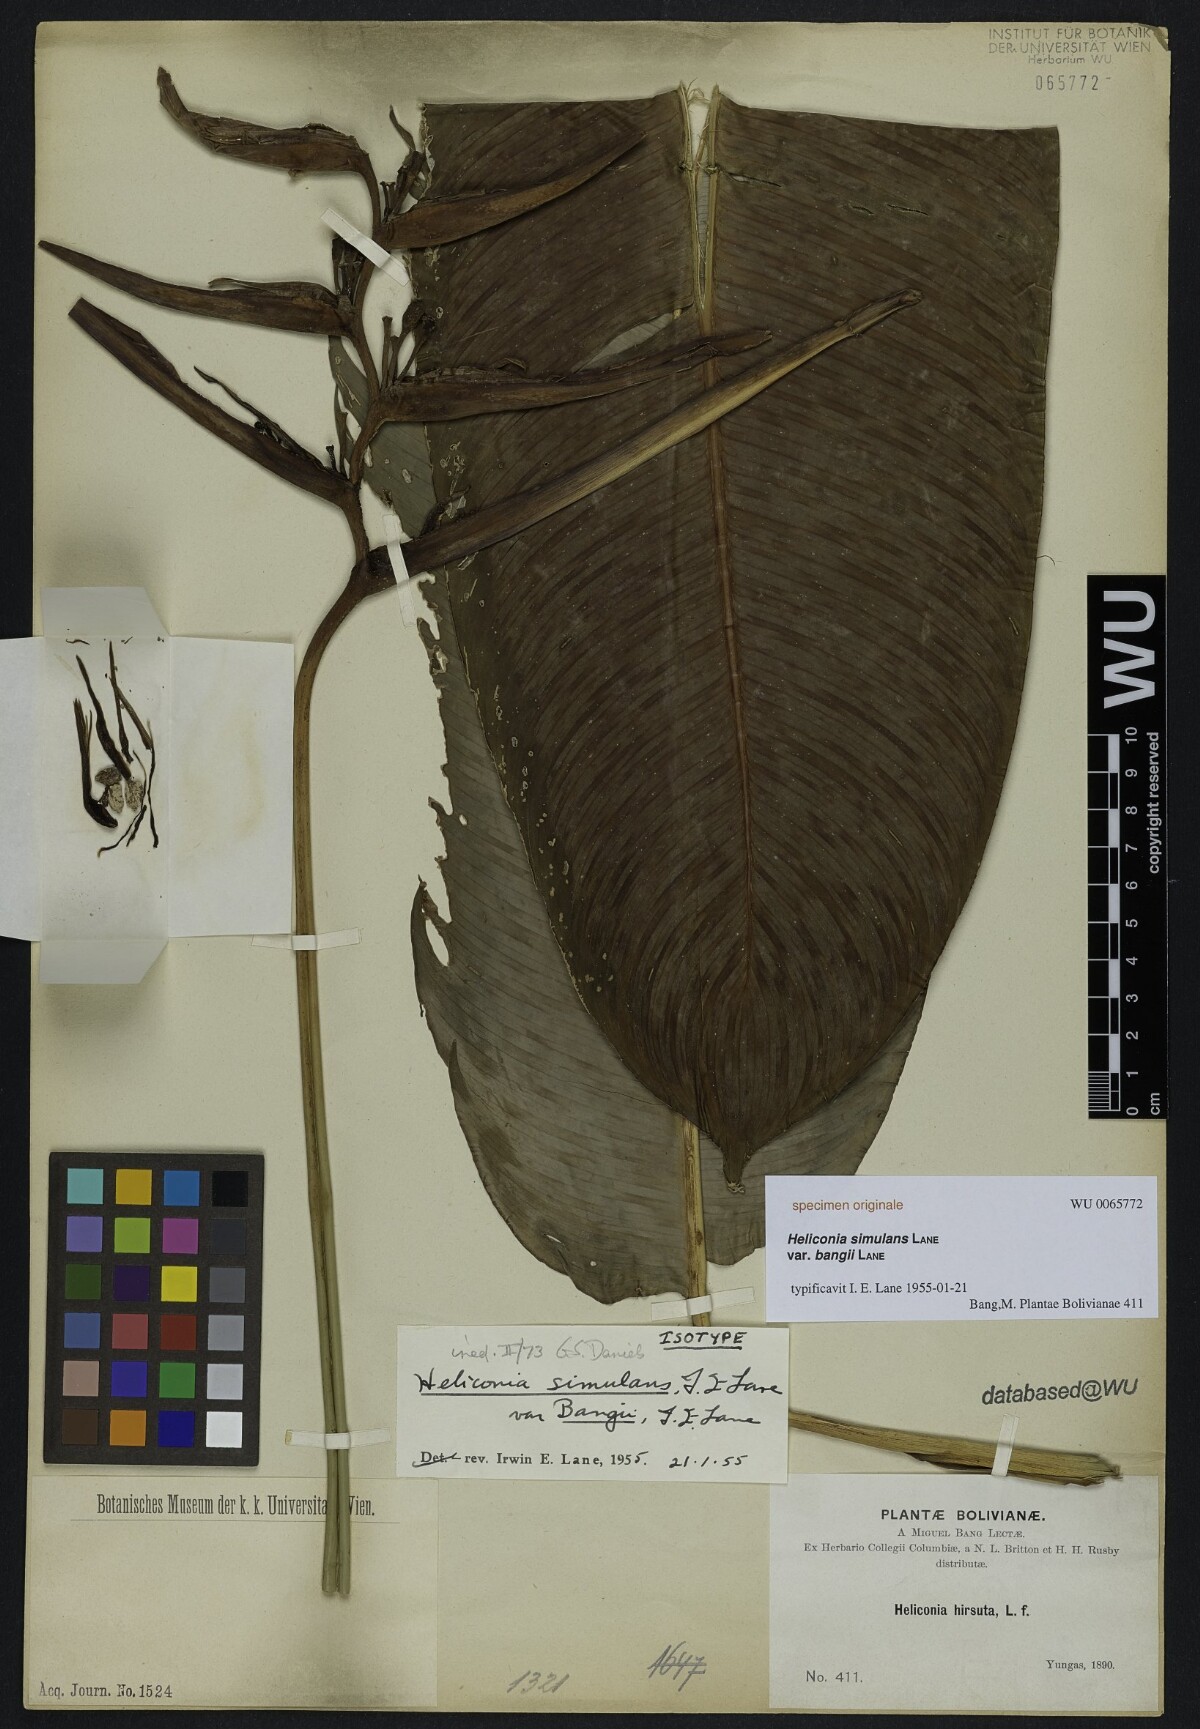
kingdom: Plantae
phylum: Tracheophyta
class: Liliopsida
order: Zingiberales
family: Heliconiaceae
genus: Heliconia
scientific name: Heliconia
